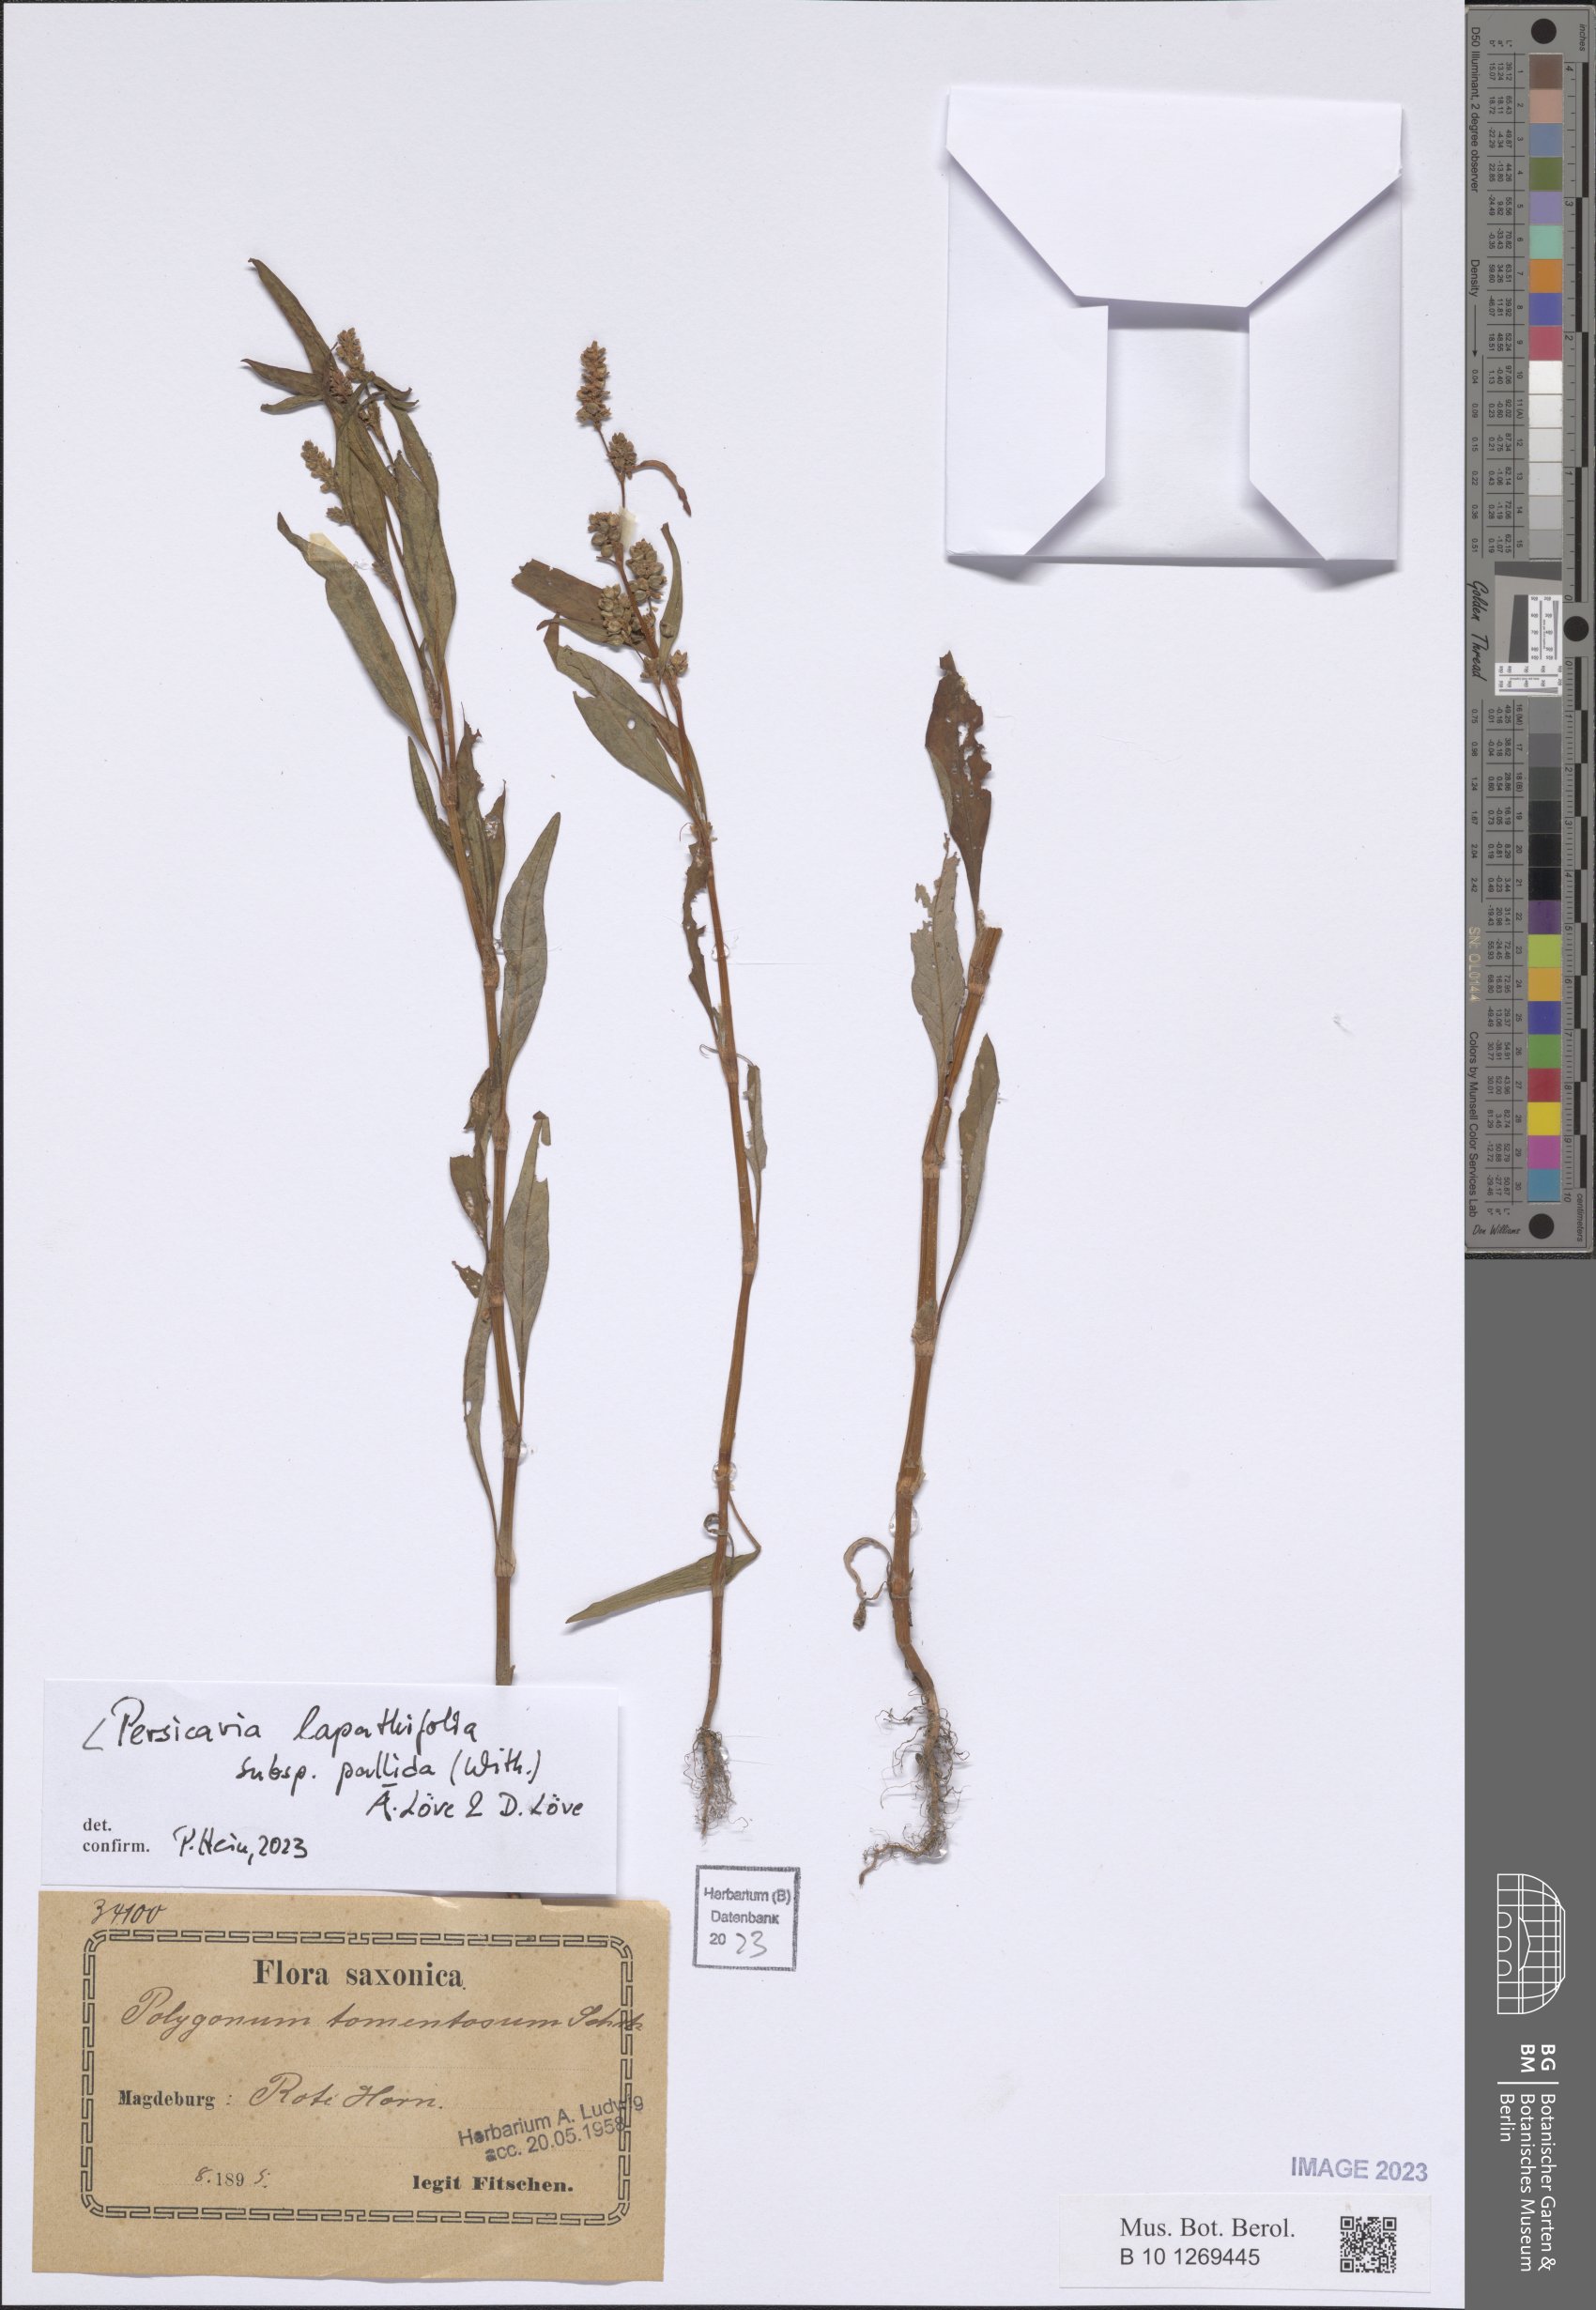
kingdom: Plantae
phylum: Tracheophyta
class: Magnoliopsida
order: Caryophyllales
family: Polygonaceae
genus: Persicaria
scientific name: Persicaria lapathifolia
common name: Curlytop knotweed
